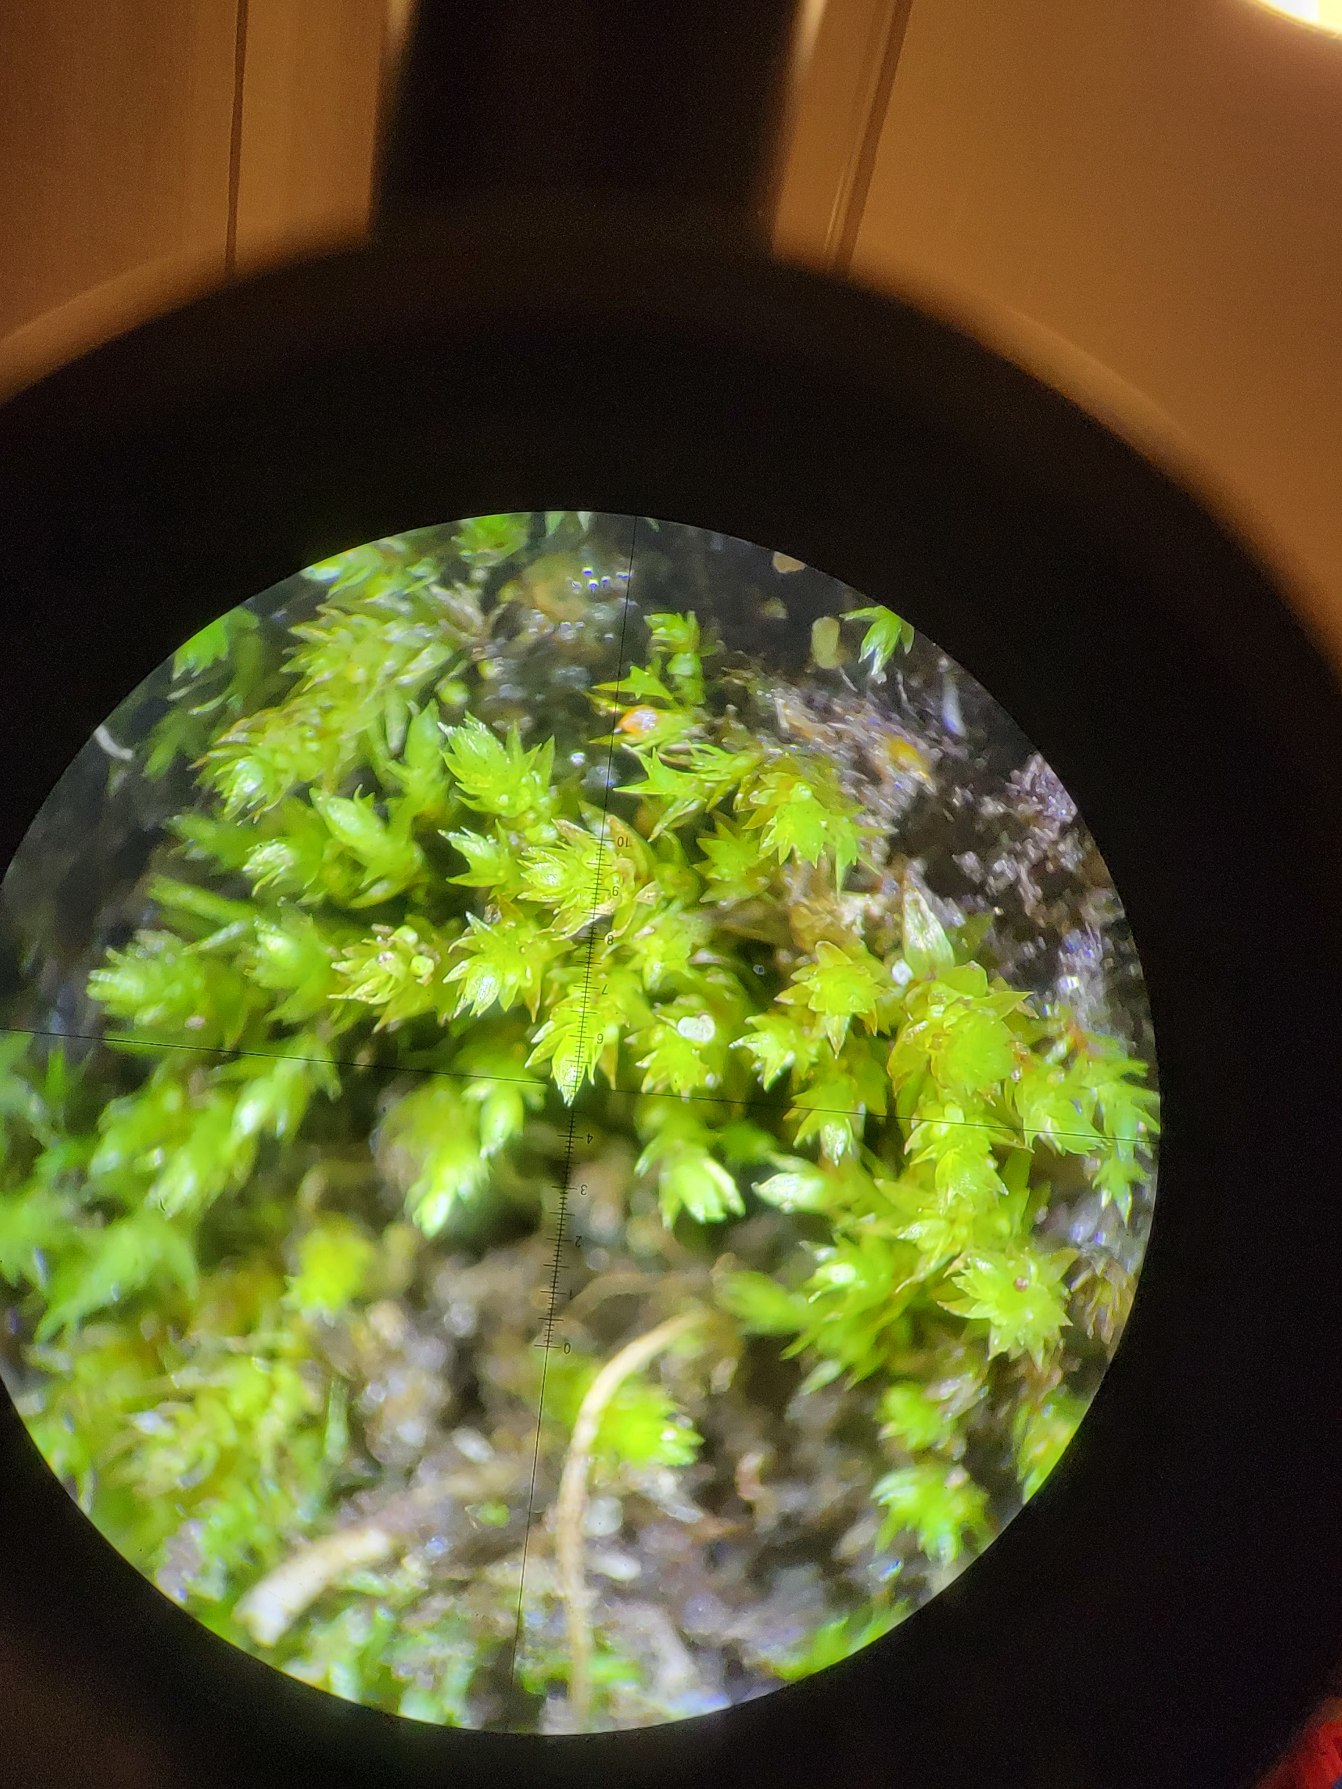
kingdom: Plantae
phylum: Bryophyta
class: Bryopsida
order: Bryales
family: Mniaceae
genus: Pohlia
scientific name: Pohlia bulbifera
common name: Gulkuglet nikkemos
